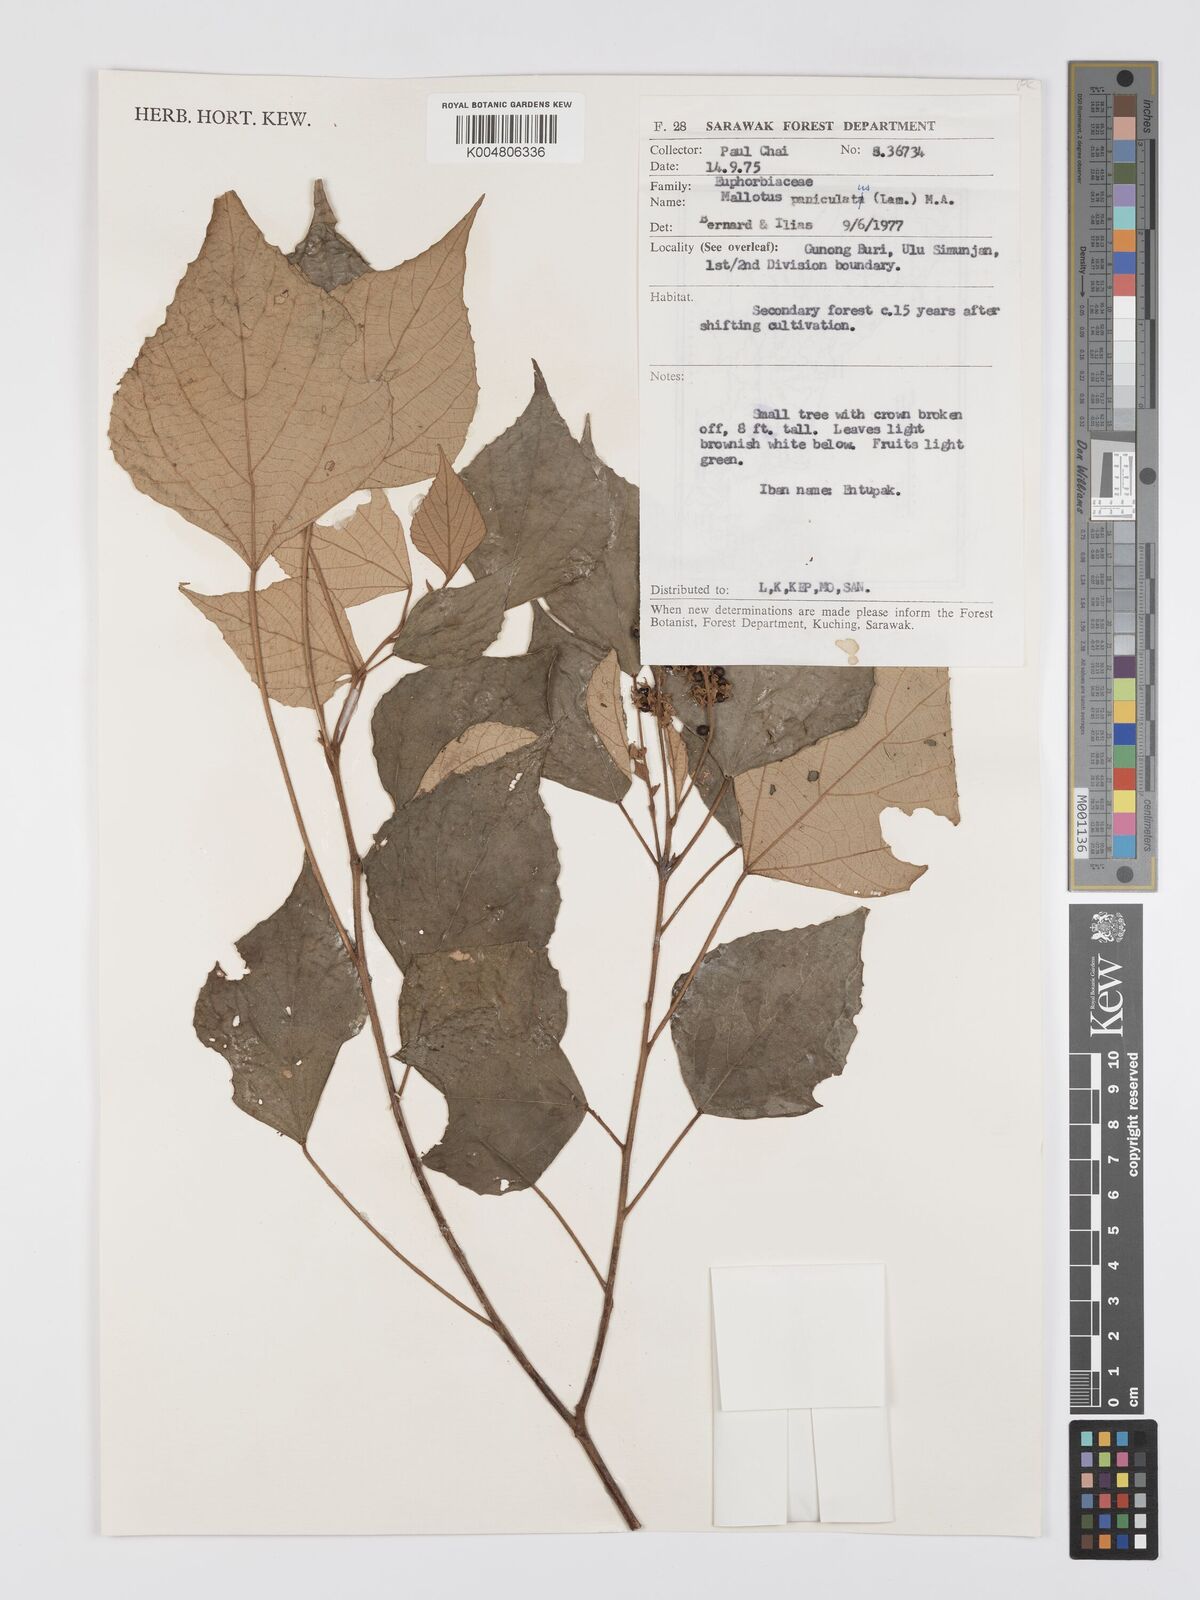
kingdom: Plantae
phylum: Tracheophyta
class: Magnoliopsida
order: Malpighiales
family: Euphorbiaceae
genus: Mallotus
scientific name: Mallotus paniculatus
